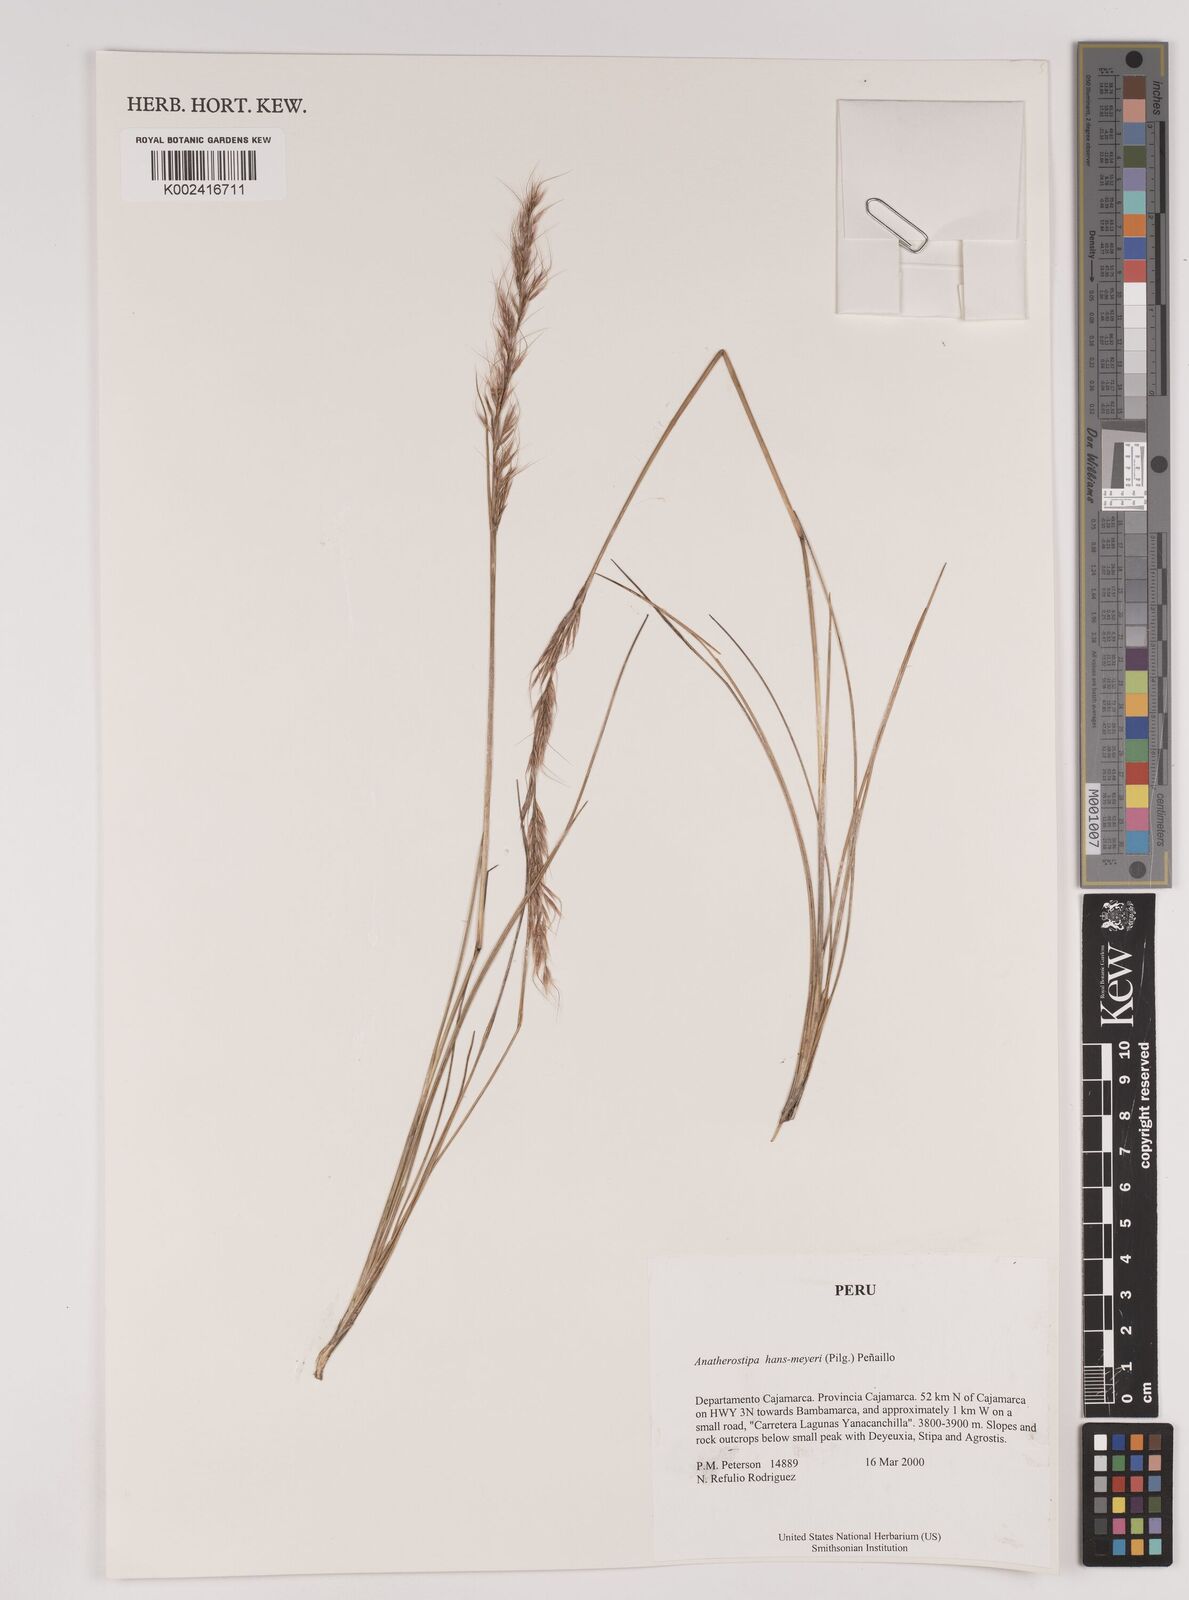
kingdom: Plantae
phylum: Tracheophyta
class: Liliopsida
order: Poales
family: Poaceae
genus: Stipa
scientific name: Stipa hans-meyeri
